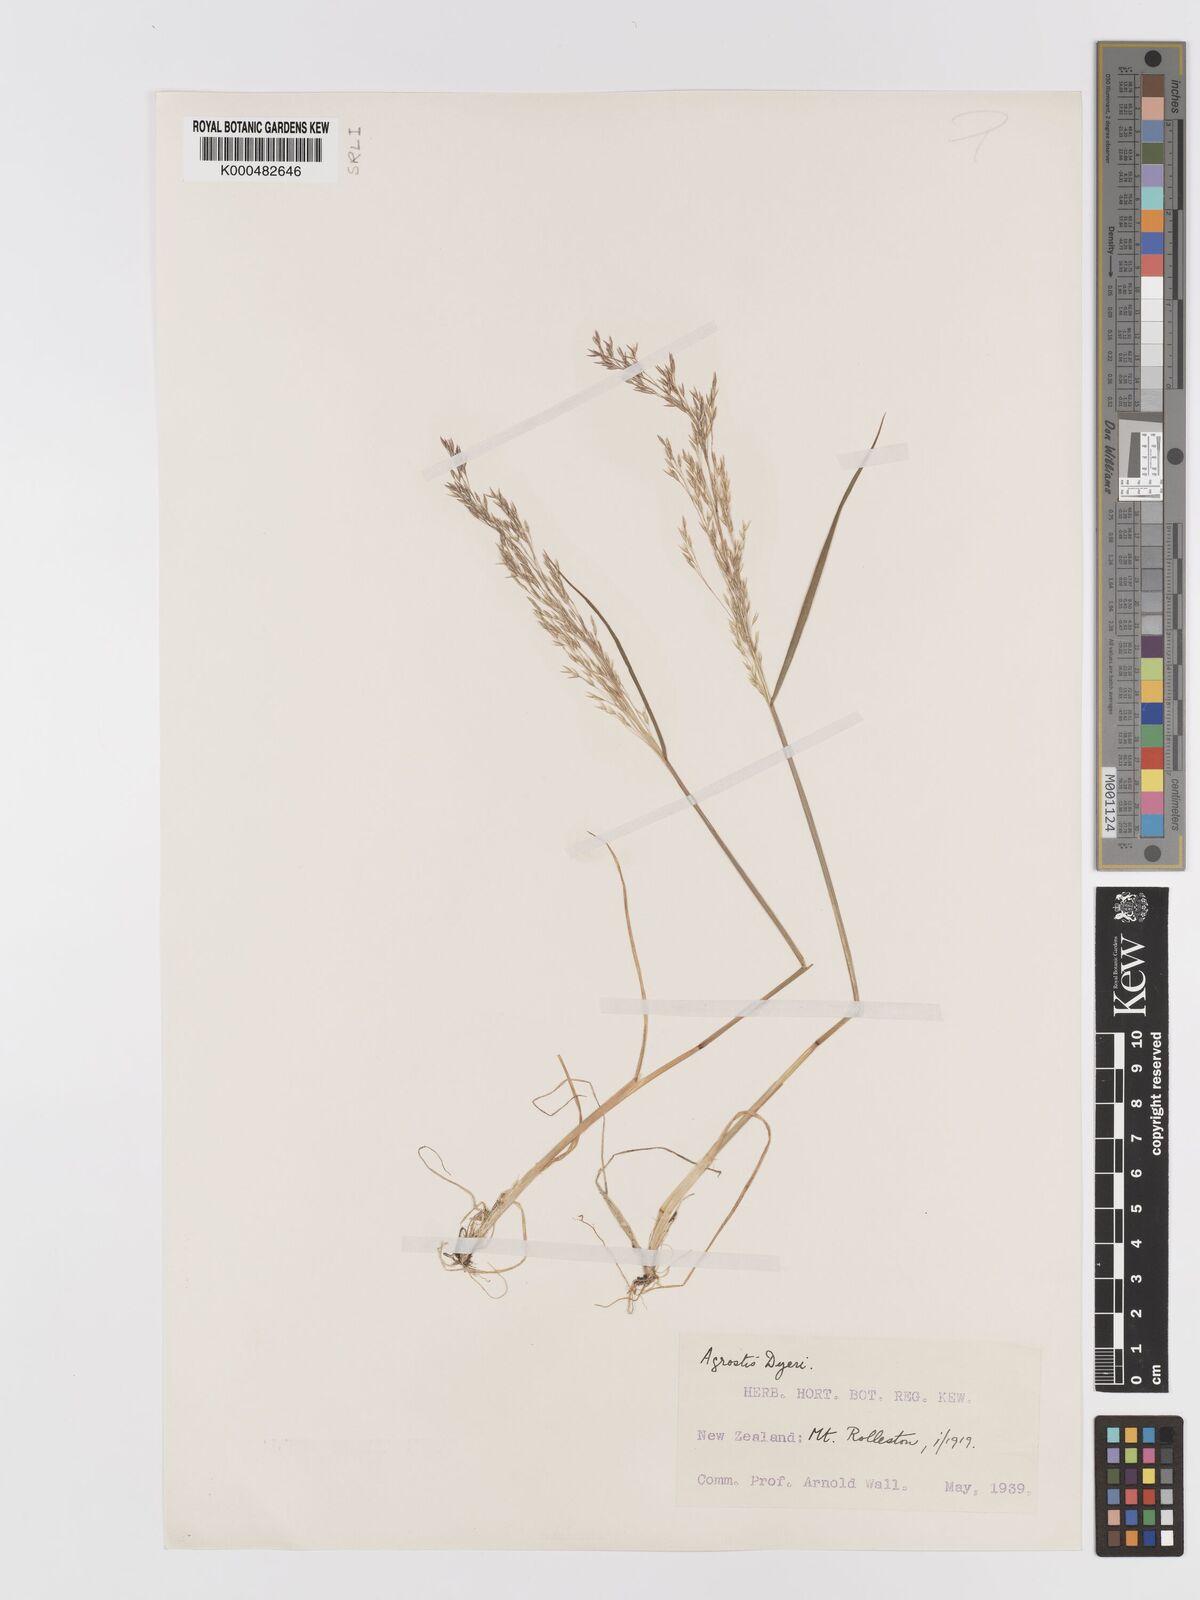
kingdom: Plantae
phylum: Tracheophyta
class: Liliopsida
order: Poales
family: Poaceae
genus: Agrostis
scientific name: Agrostis dyeri
